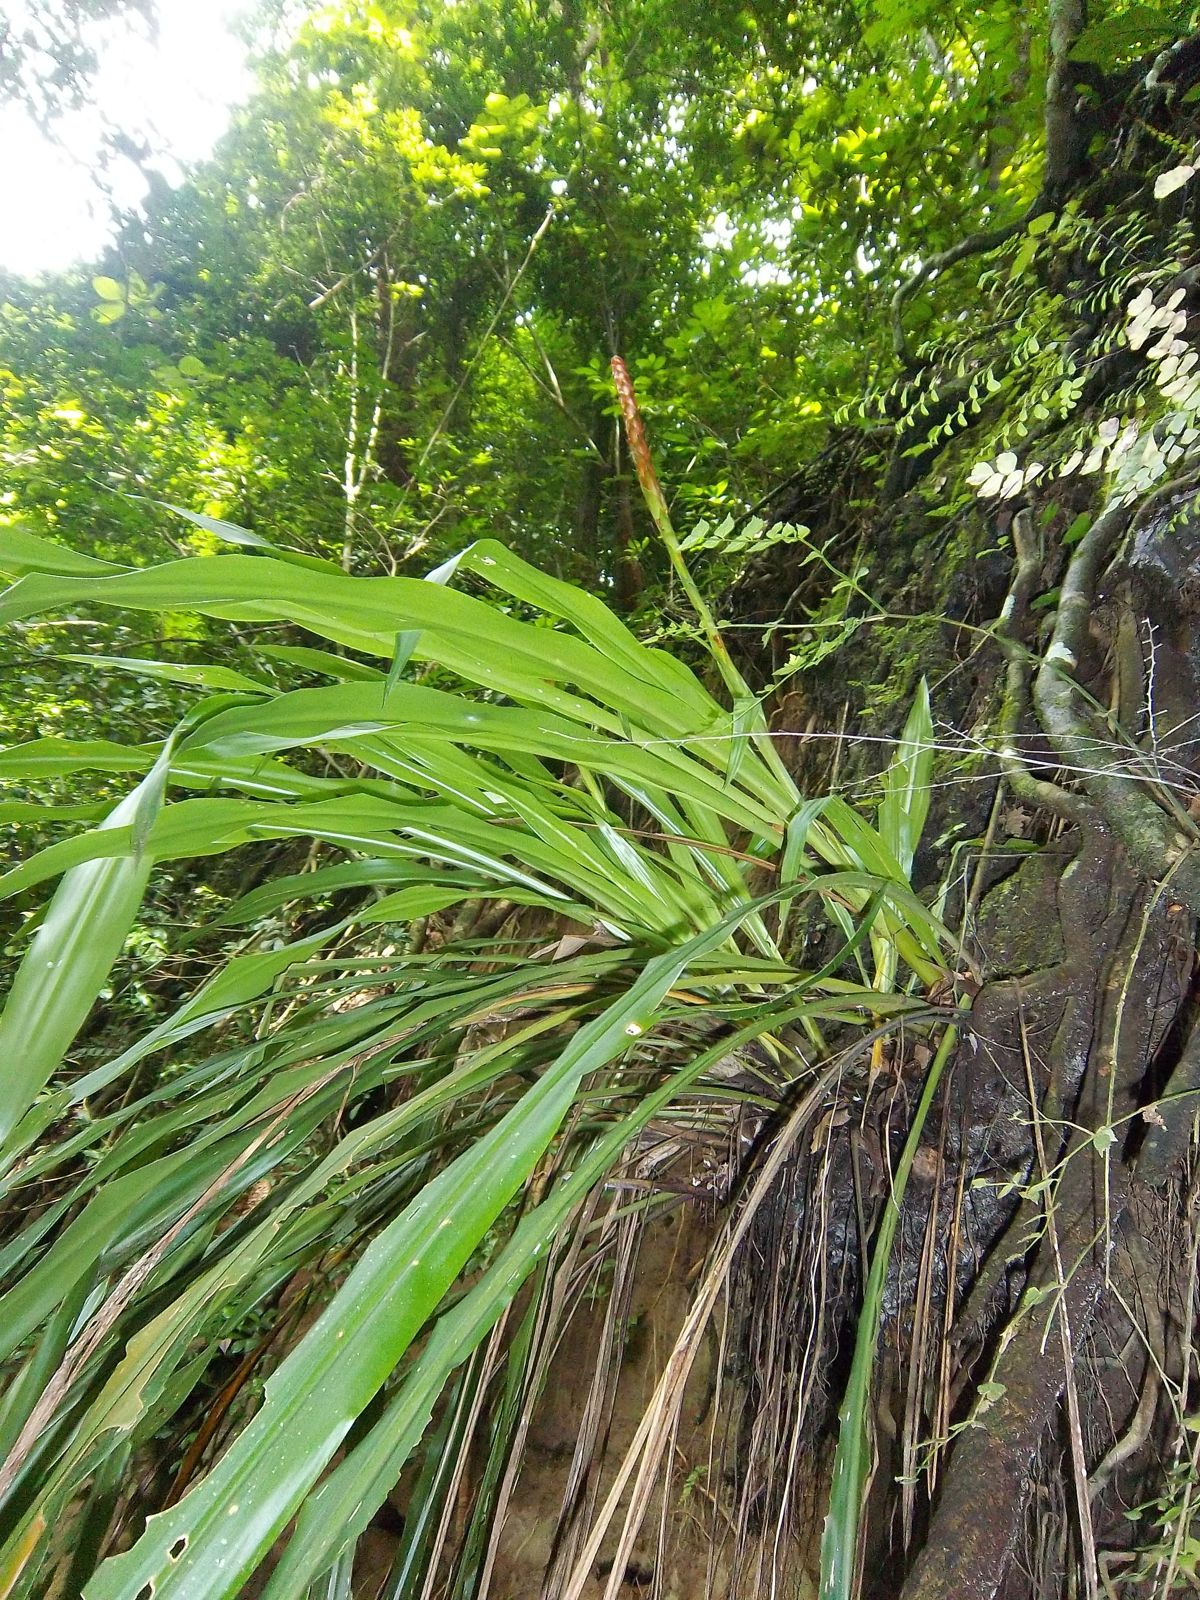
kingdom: Plantae
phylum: Tracheophyta
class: Liliopsida
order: Poales
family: Bromeliaceae
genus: Pitcairnia
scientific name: Pitcairnia imbricata
